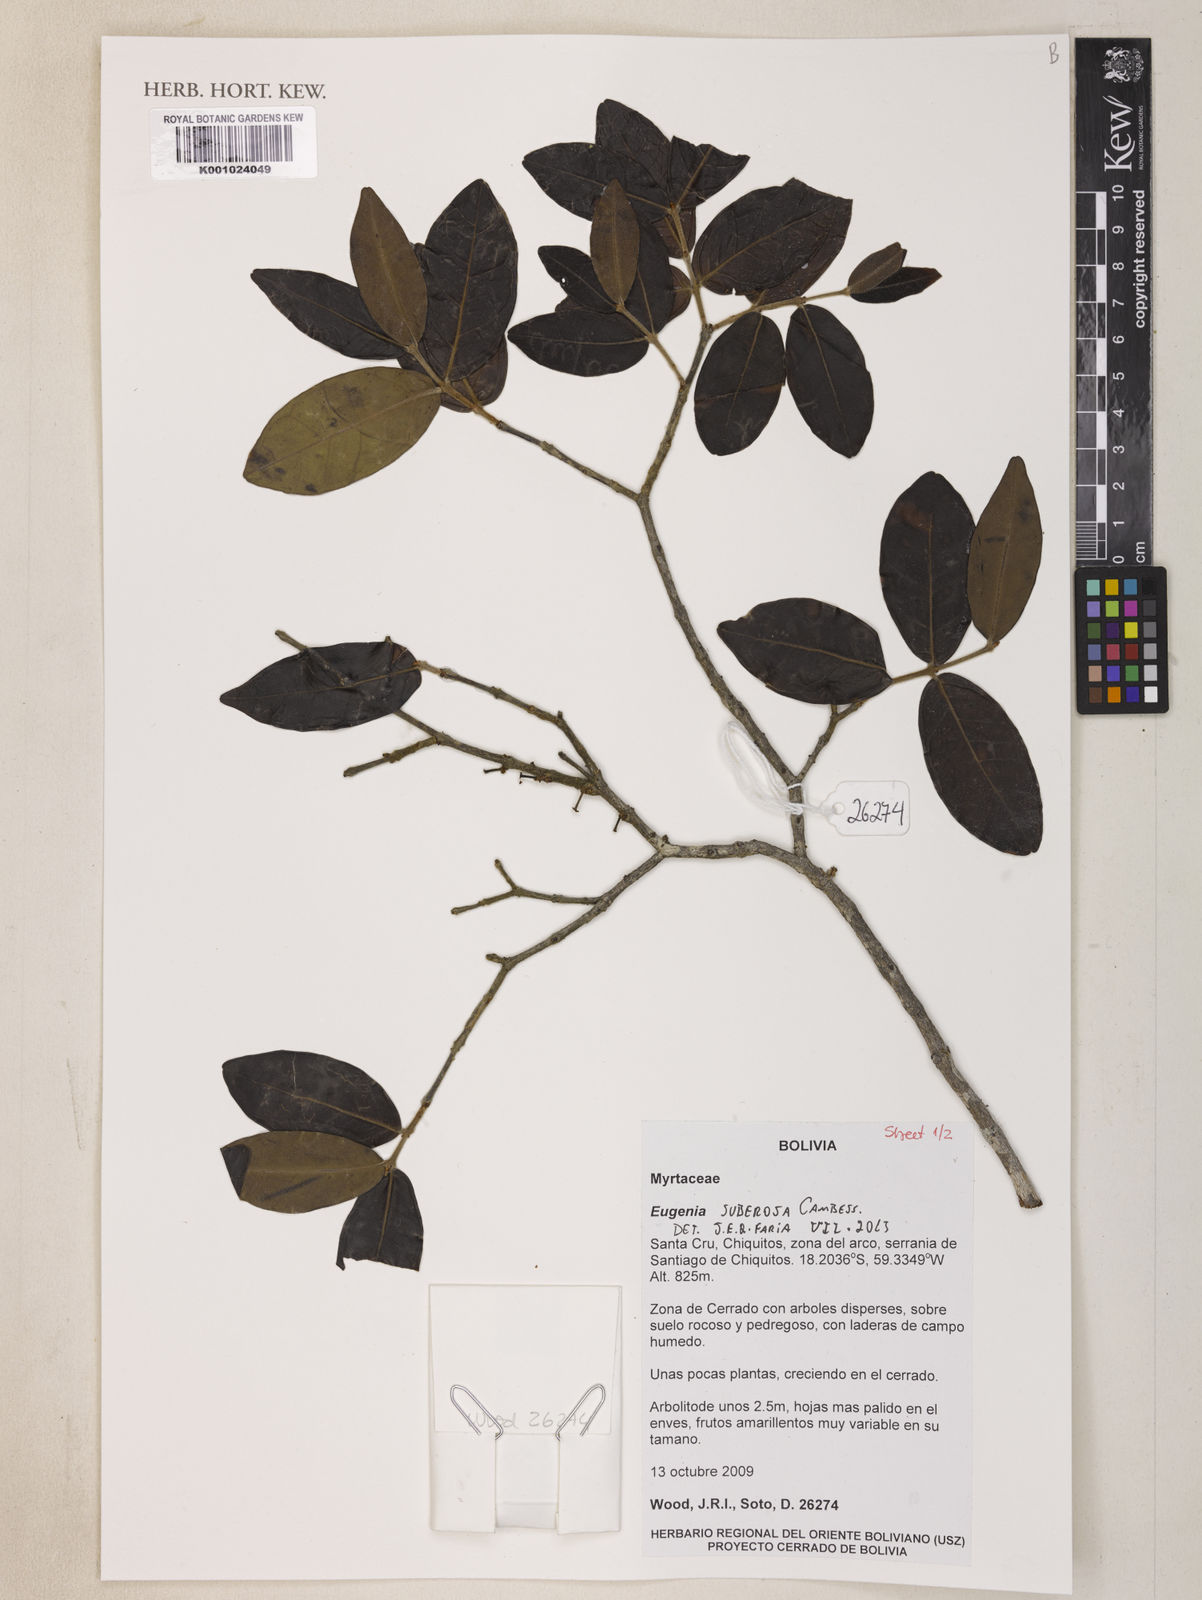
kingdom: Plantae
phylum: Tracheophyta
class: Magnoliopsida
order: Myrtales
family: Myrtaceae
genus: Eugenia
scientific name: Eugenia suberosa
